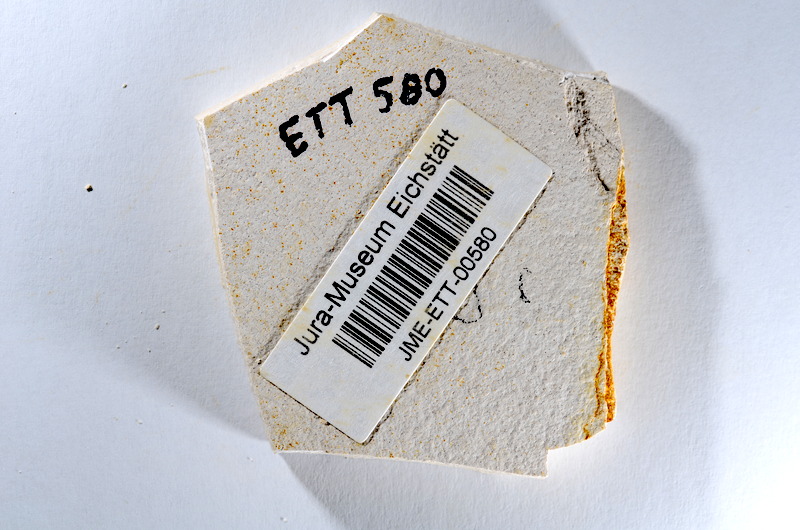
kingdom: Animalia
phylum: Chordata
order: Salmoniformes
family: Orthogonikleithridae
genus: Orthogonikleithrus
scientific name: Orthogonikleithrus hoelli
